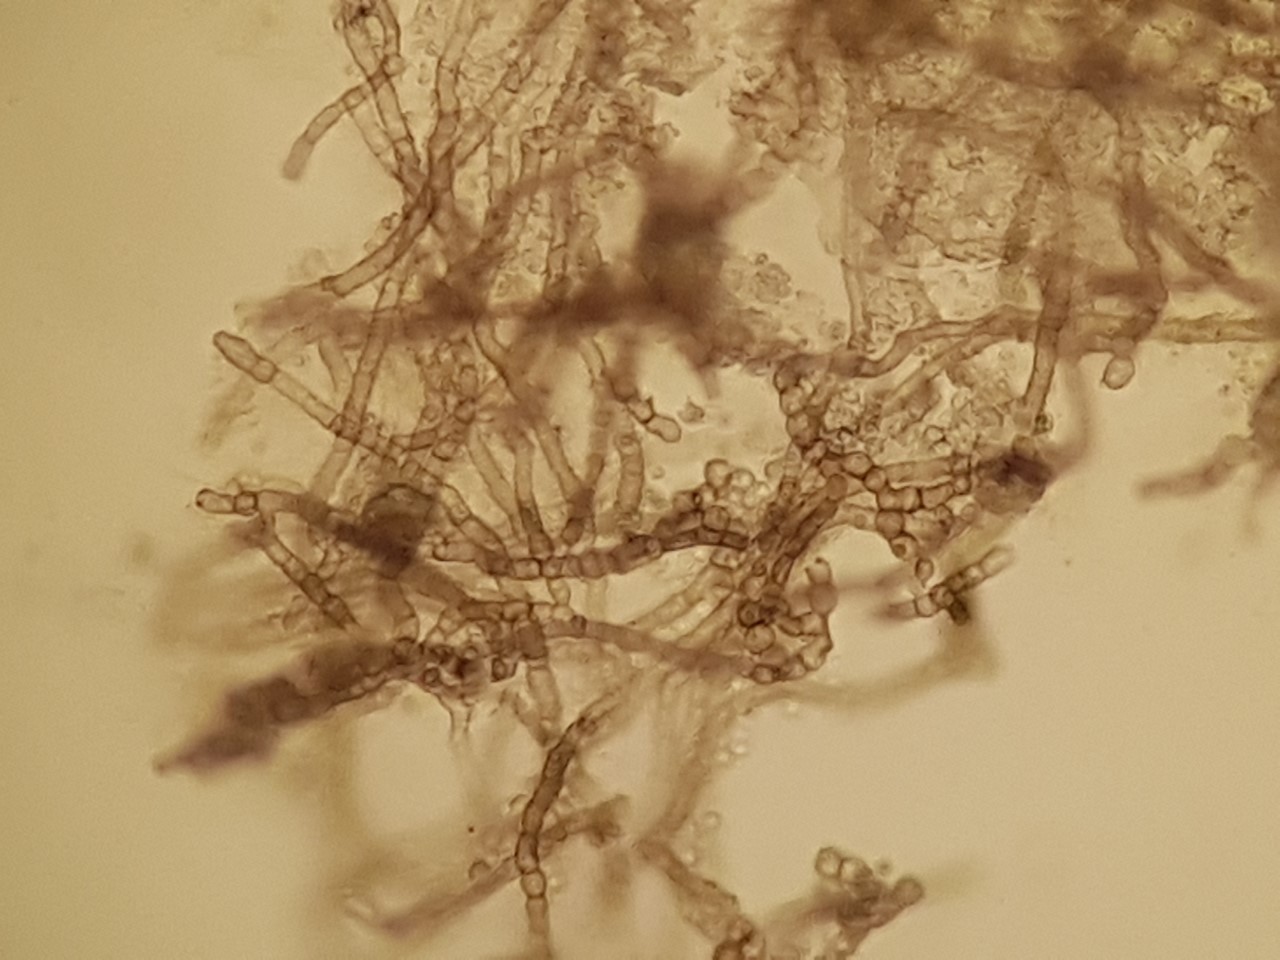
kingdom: Fungi
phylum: Ascomycota
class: Dothideomycetes
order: Pleosporales
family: Thyridariaceae
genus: Thyridaria
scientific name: Thyridaria macrostomoides
